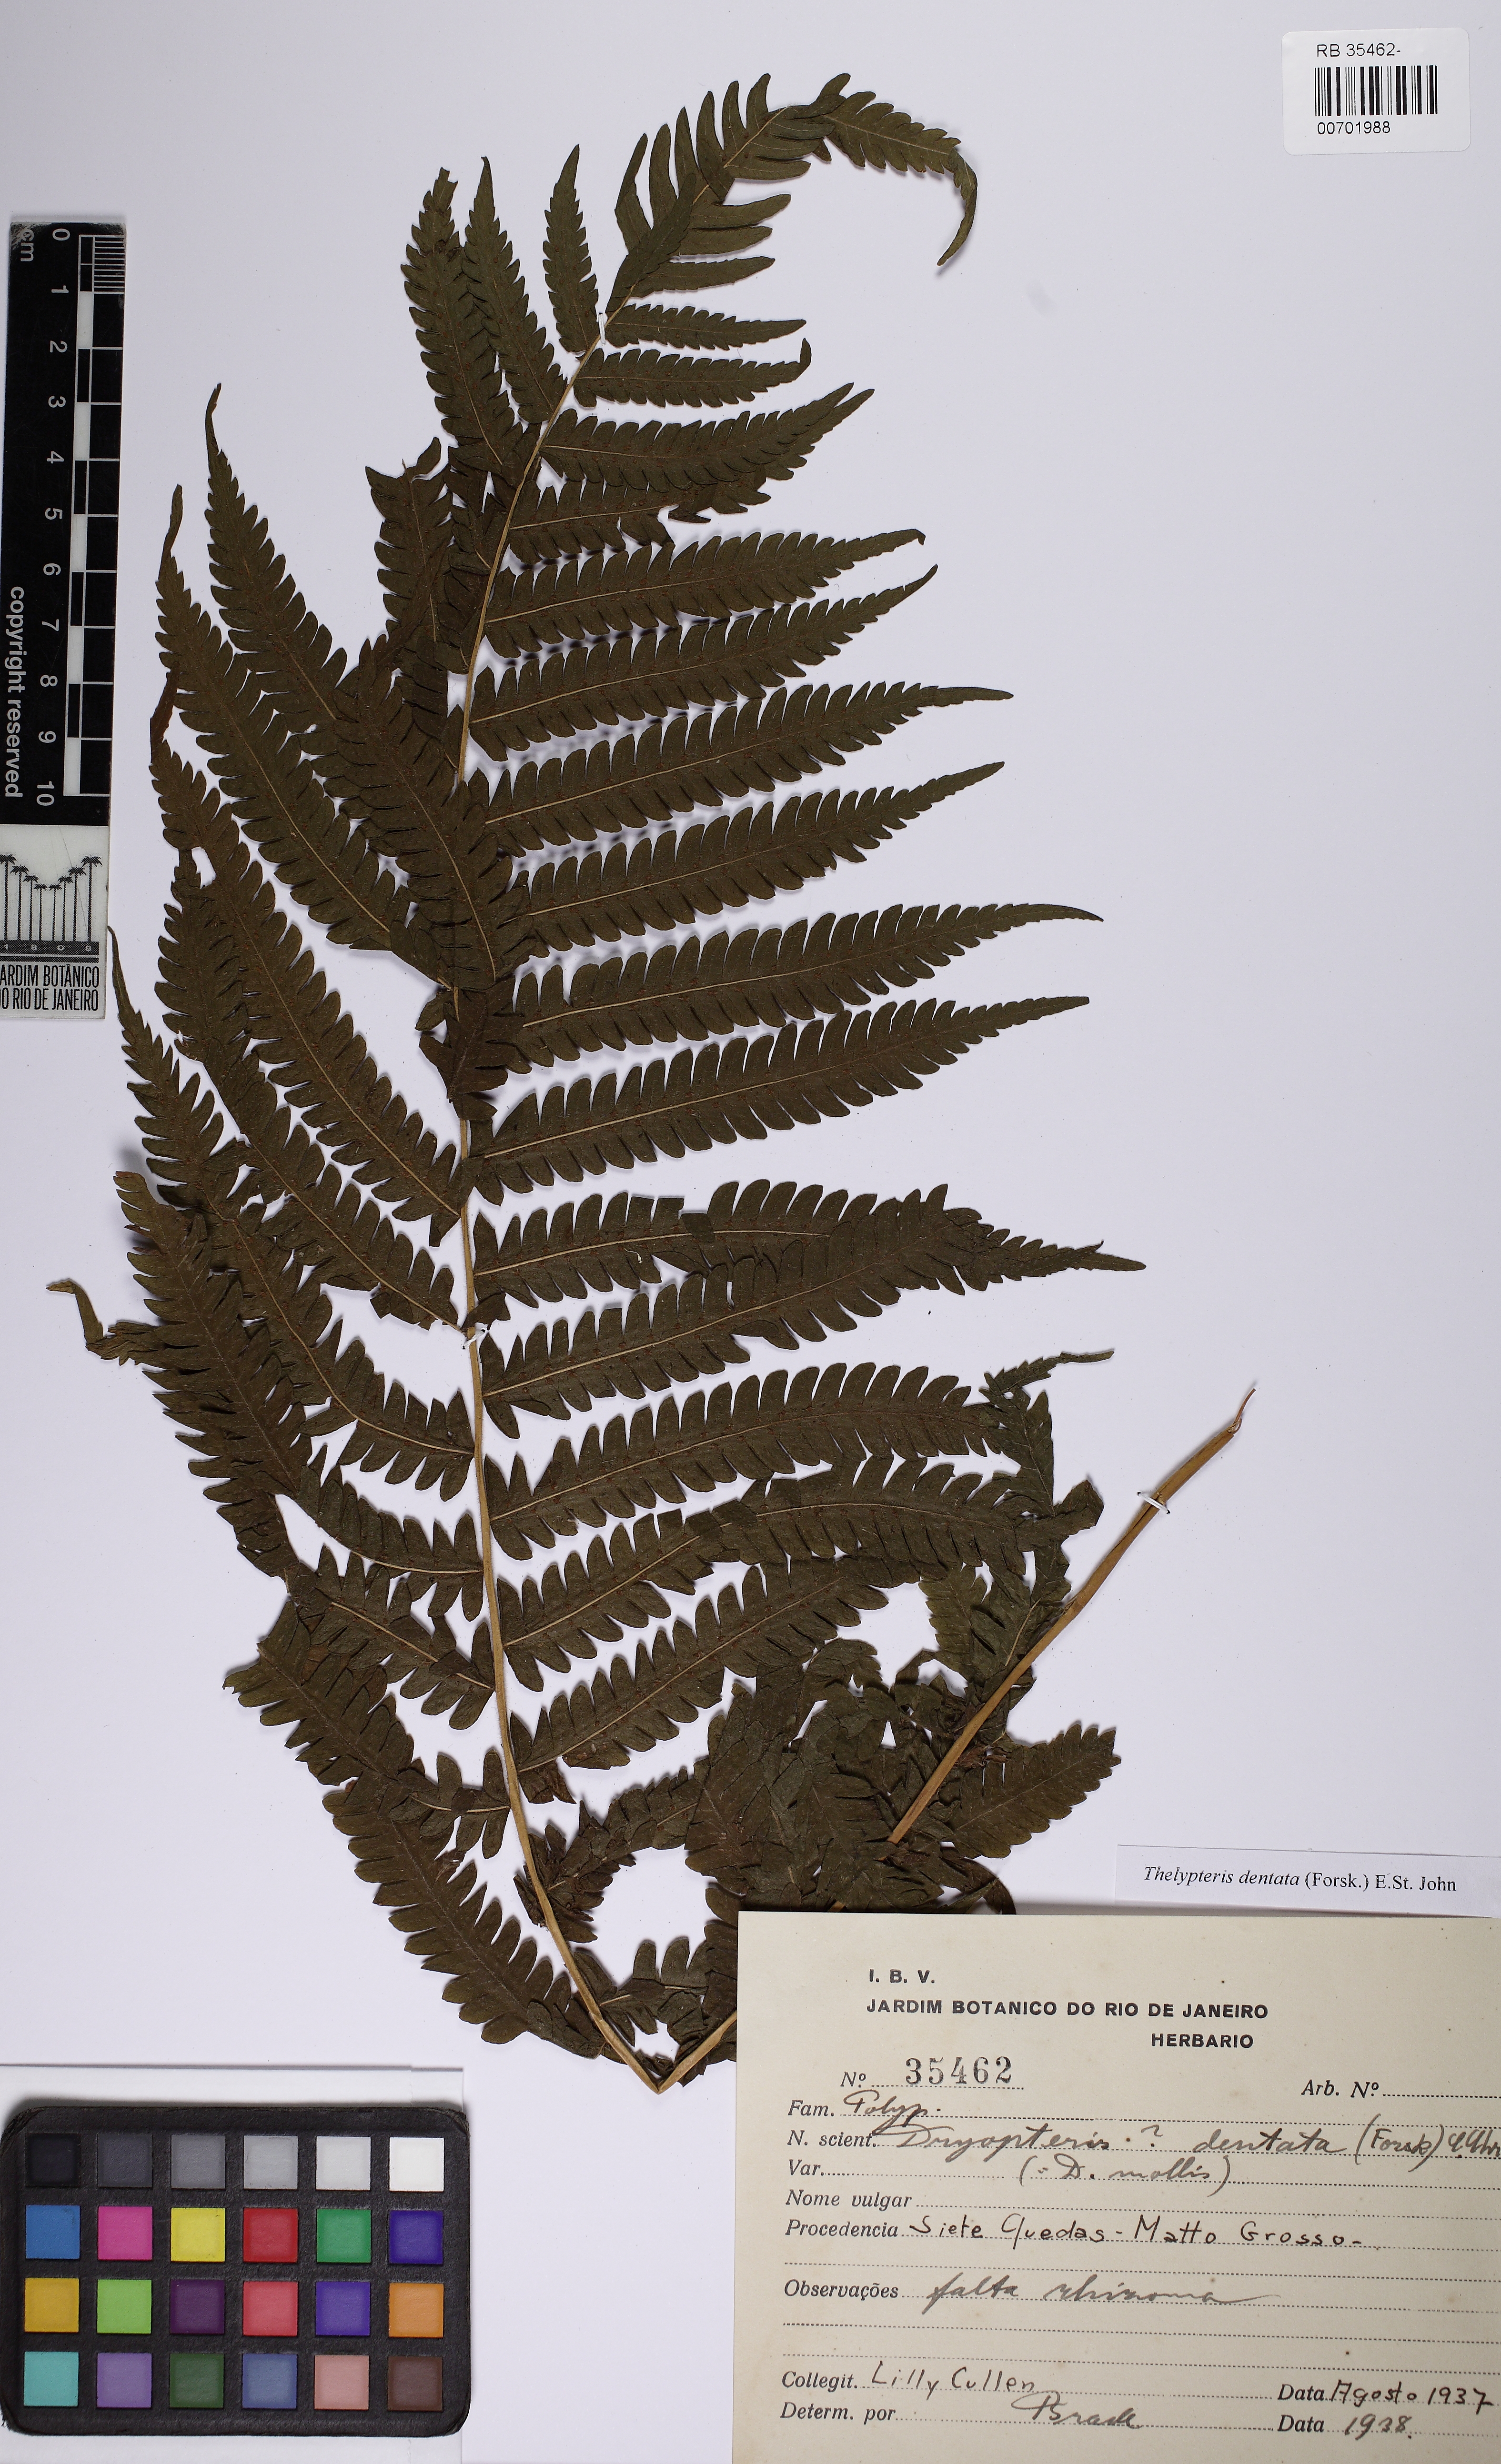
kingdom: Plantae
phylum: Tracheophyta
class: Polypodiopsida
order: Polypodiales
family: Thelypteridaceae
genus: Christella
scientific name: Christella dentata
